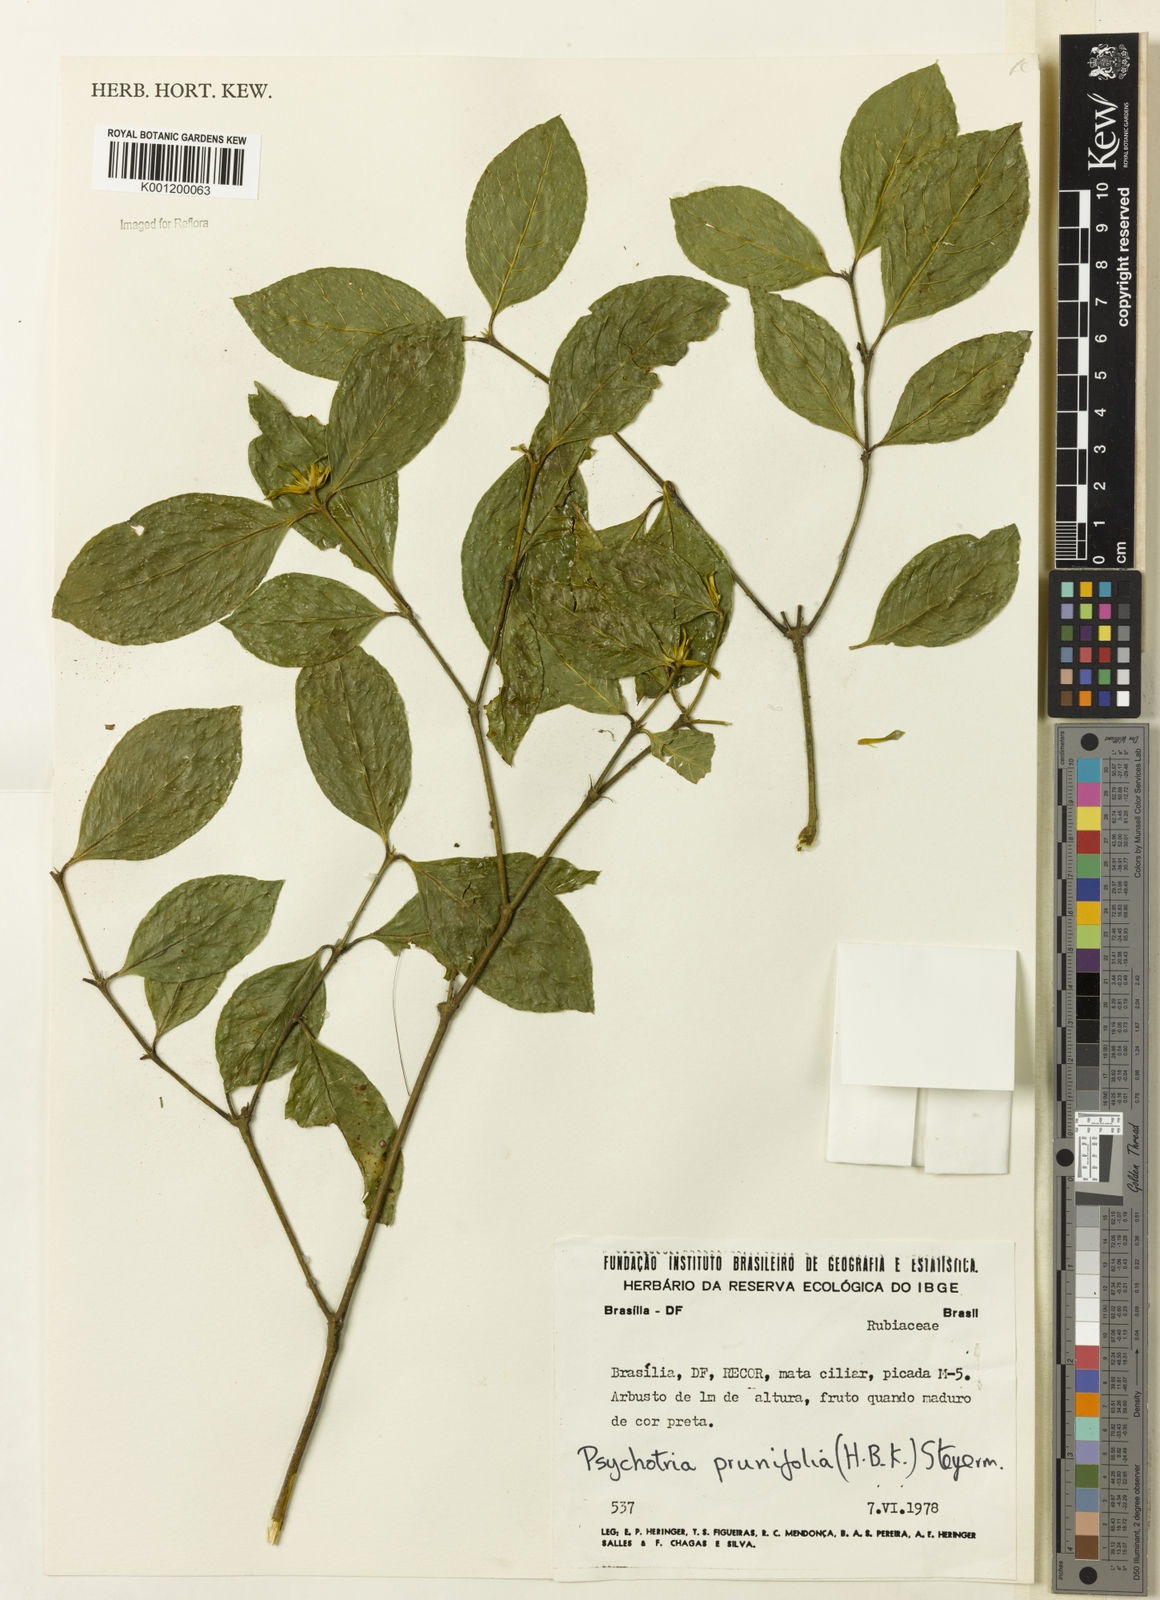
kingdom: Plantae
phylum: Tracheophyta
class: Magnoliopsida
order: Gentianales
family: Rubiaceae
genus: Palicourea
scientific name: Palicourea prunifolia
